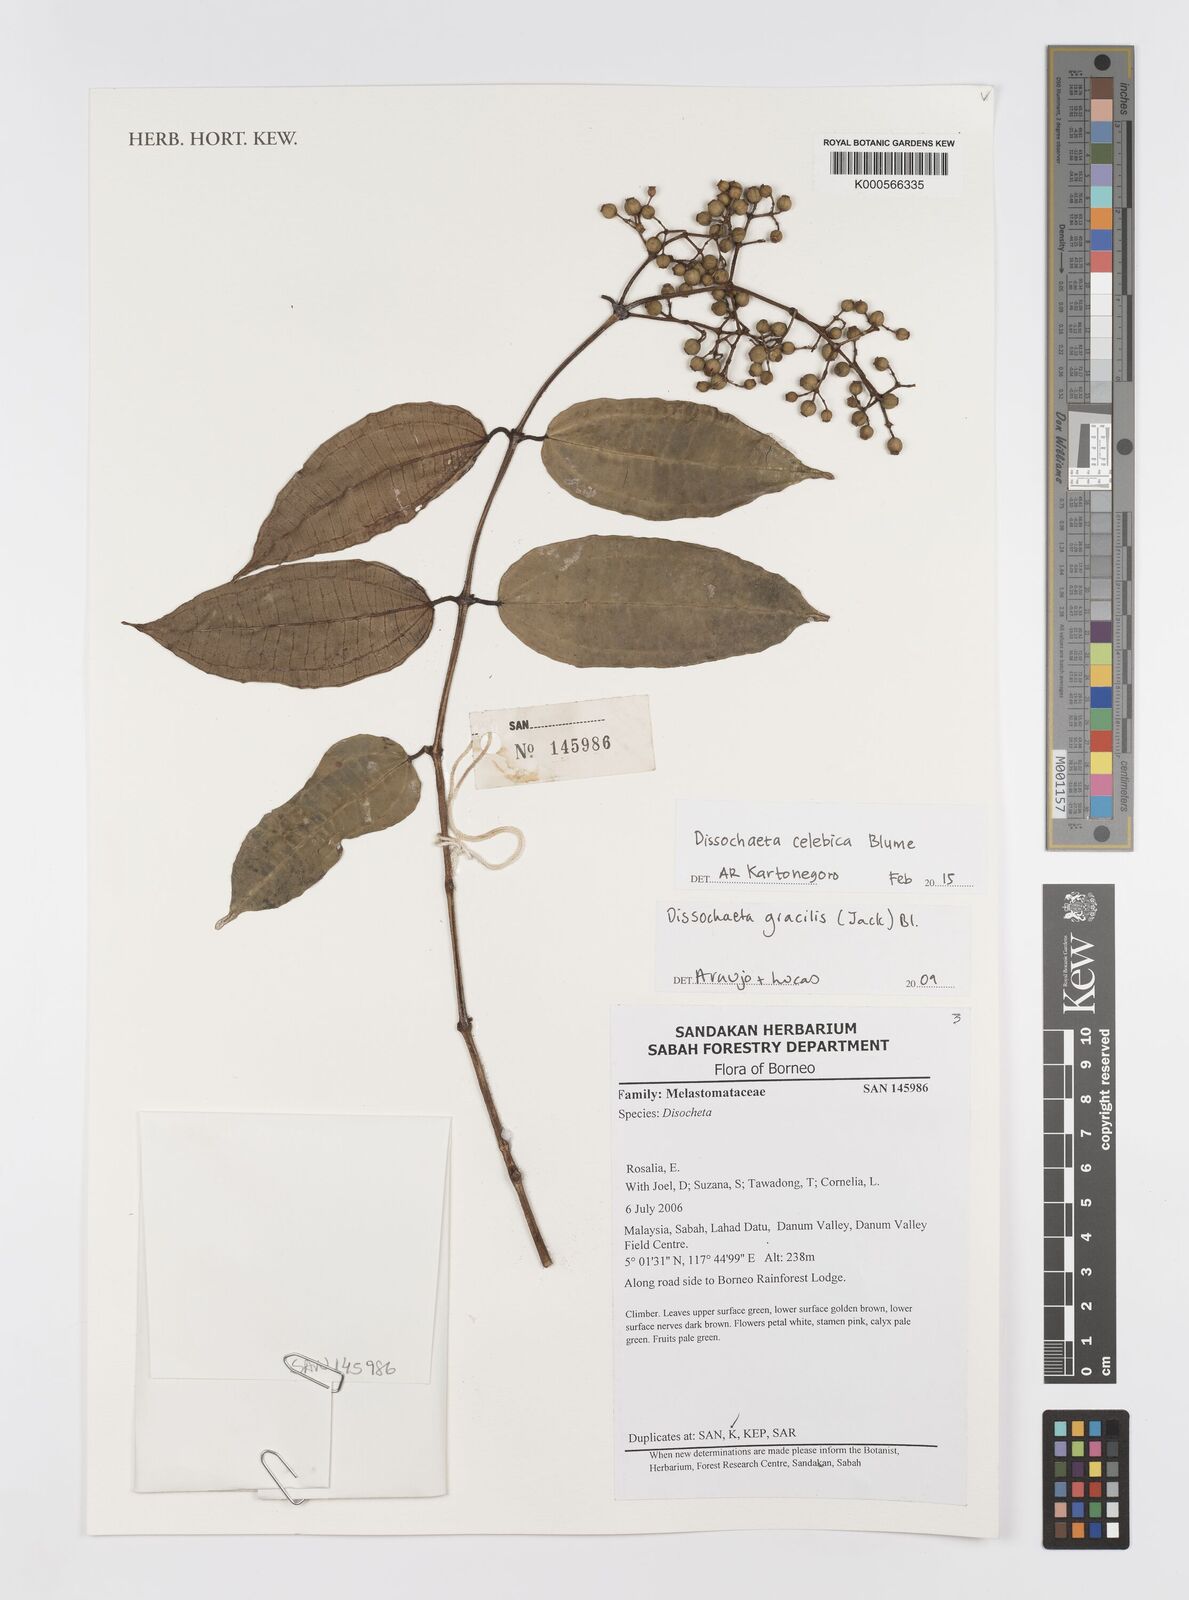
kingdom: Plantae
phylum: Tracheophyta
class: Magnoliopsida
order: Myrtales
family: Melastomataceae
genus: Dissochaeta
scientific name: Dissochaeta celebica
